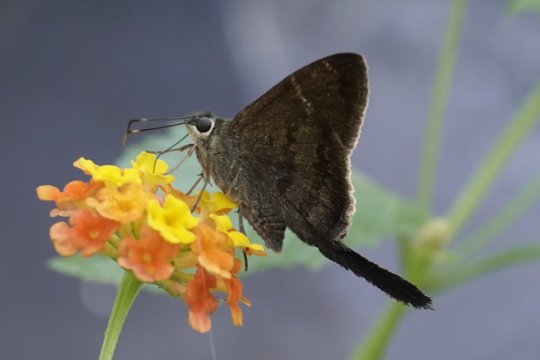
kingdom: Animalia
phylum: Arthropoda
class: Insecta
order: Lepidoptera
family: Hesperiidae
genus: Urbanus
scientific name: Urbanus simplicius
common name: Plain Longtail
